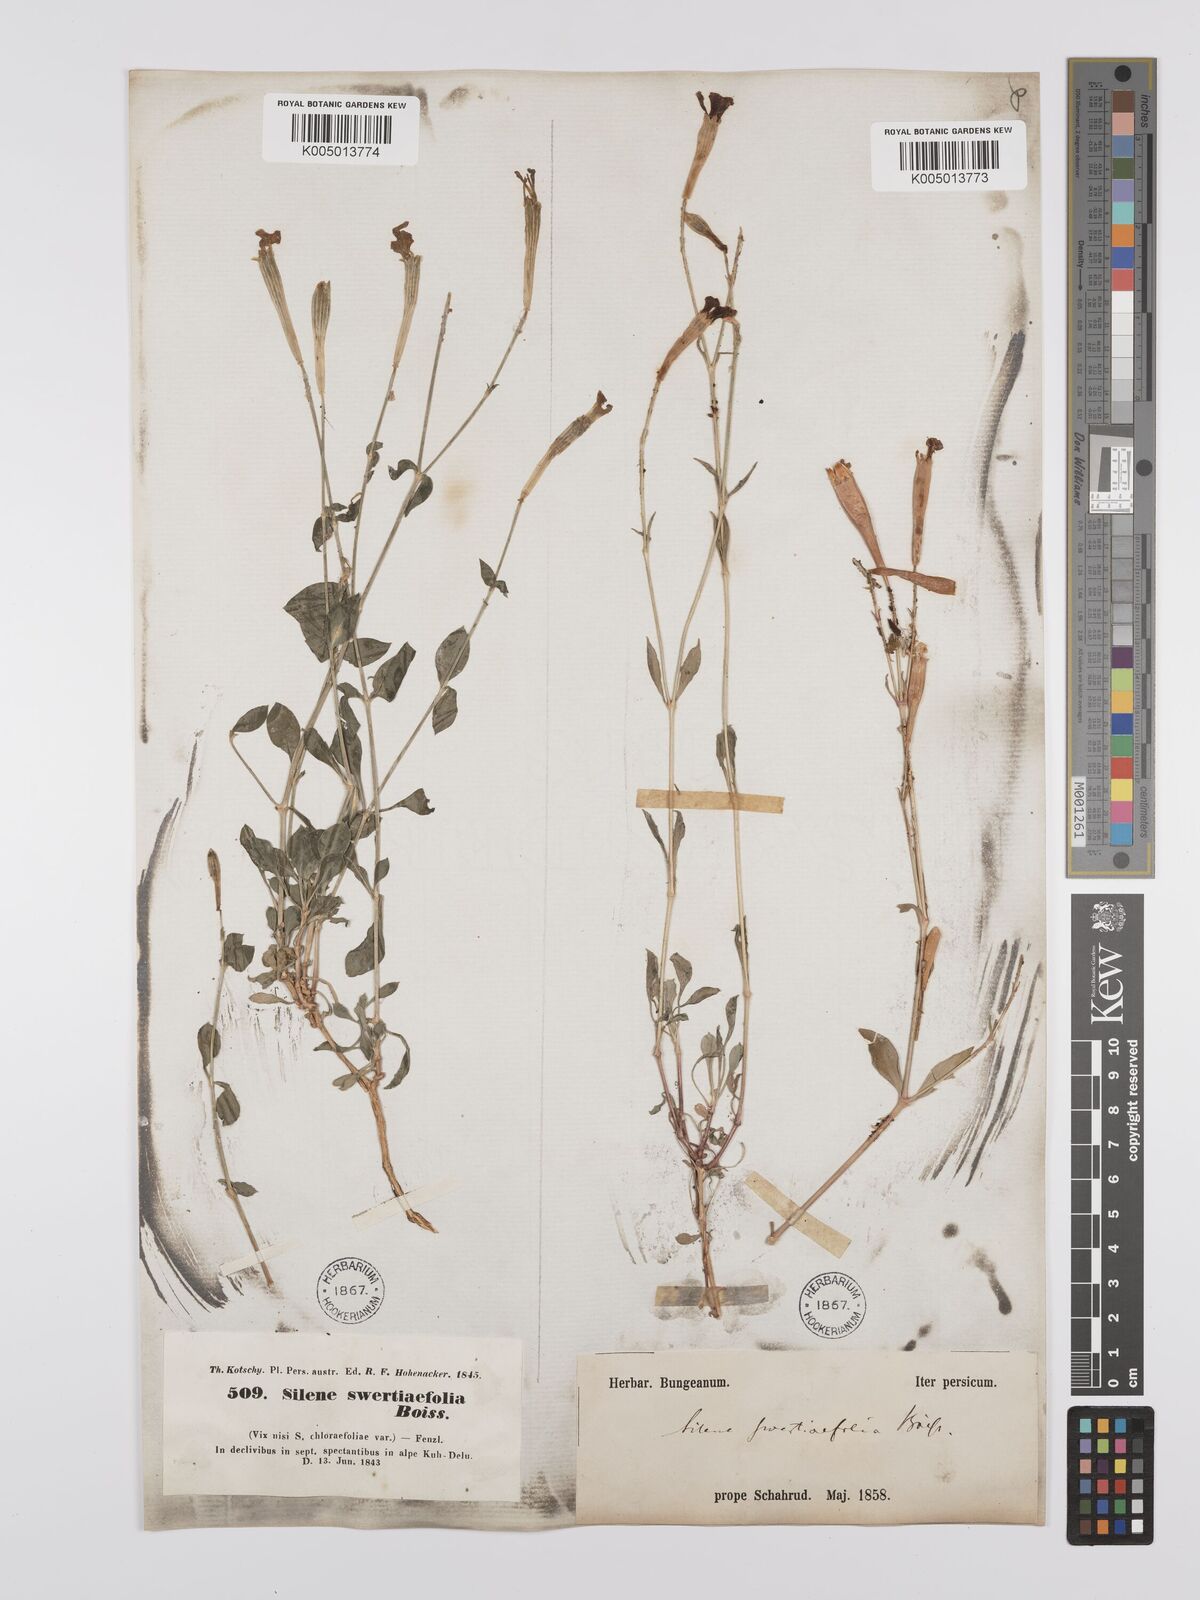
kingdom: Plantae
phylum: Tracheophyta
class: Magnoliopsida
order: Caryophyllales
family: Caryophyllaceae
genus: Silene
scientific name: Silene swertiifolia
